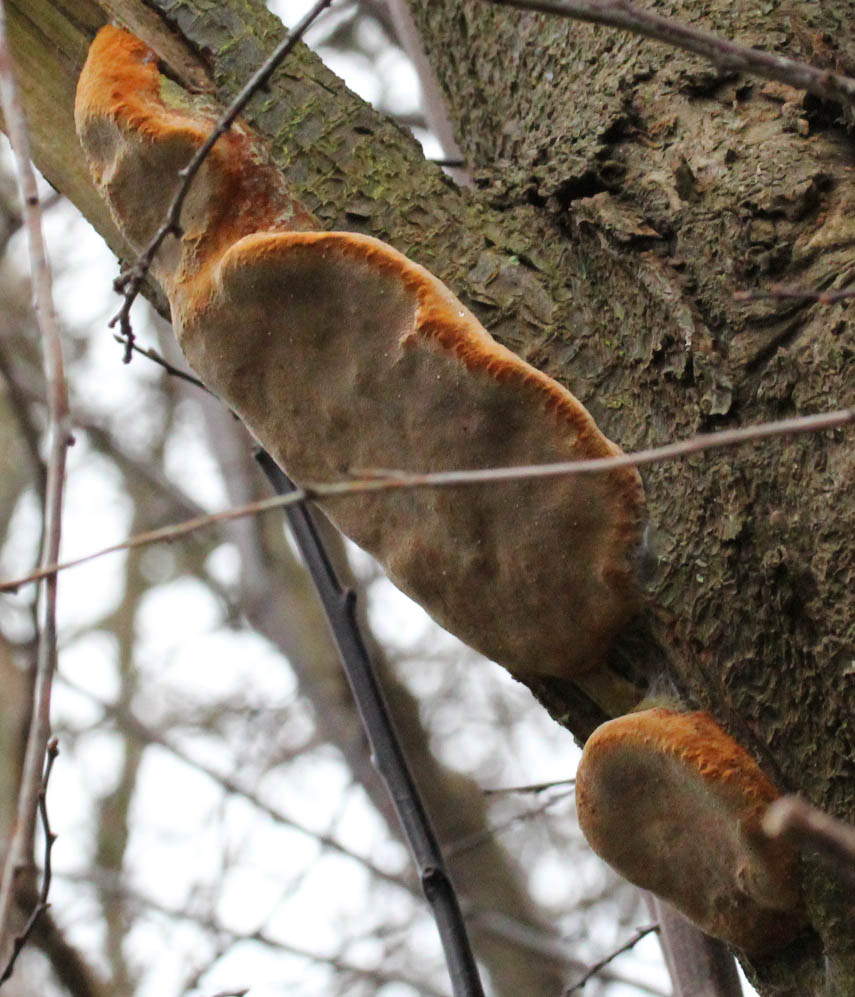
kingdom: Fungi
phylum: Basidiomycota
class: Agaricomycetes
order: Hymenochaetales
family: Hymenochaetaceae
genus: Phellinus
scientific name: Phellinus pomaceus
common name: blomme-ildporesvamp
